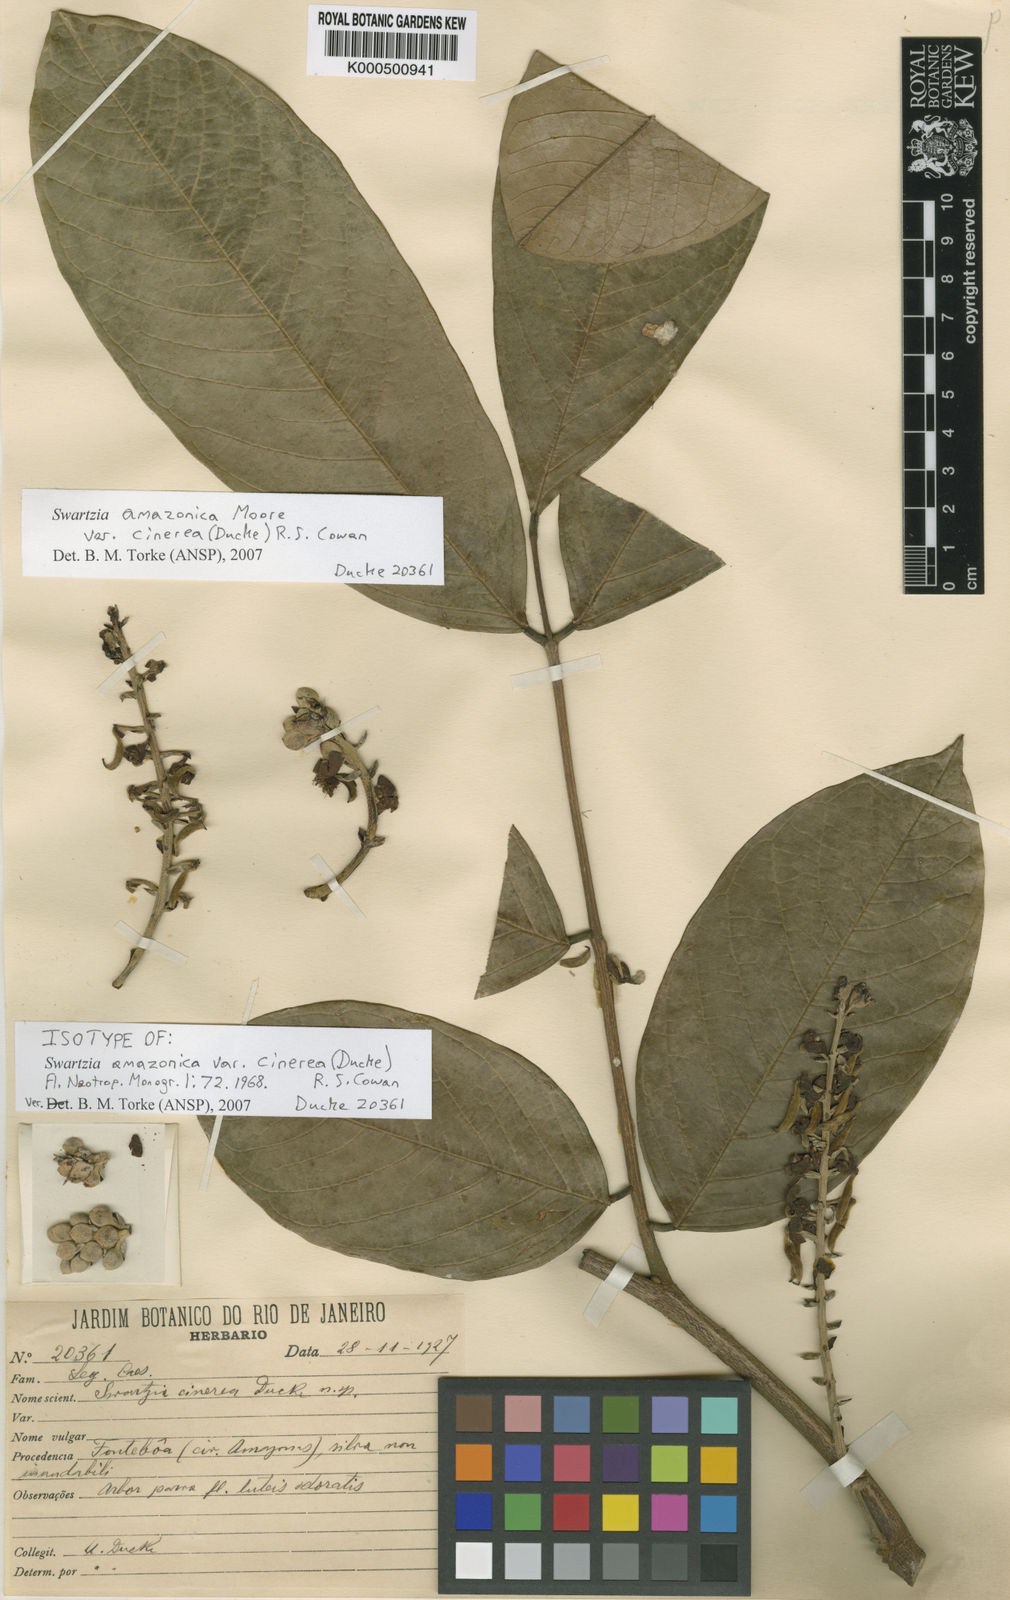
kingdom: Plantae
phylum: Tracheophyta
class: Magnoliopsida
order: Fabales
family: Fabaceae
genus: Swartzia
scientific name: Swartzia amazonica
